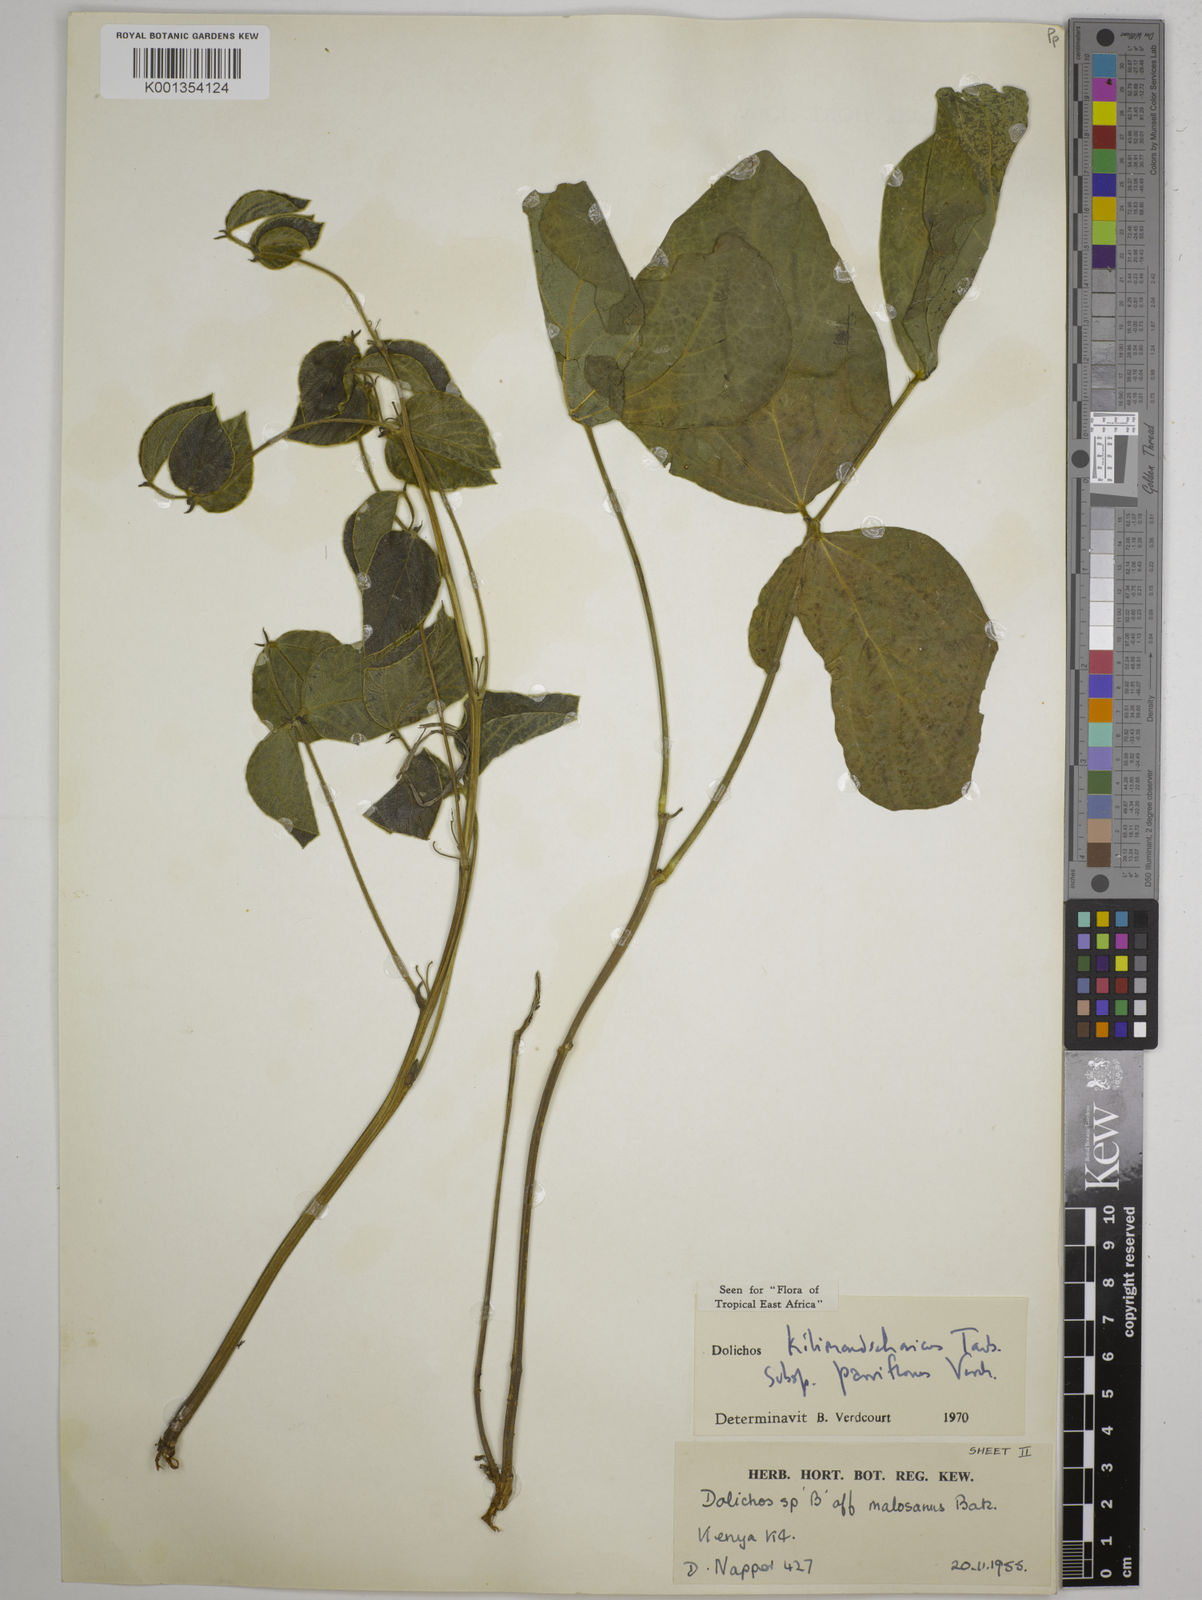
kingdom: Plantae
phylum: Tracheophyta
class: Magnoliopsida
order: Fabales
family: Fabaceae
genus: Dolichos
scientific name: Dolichos
